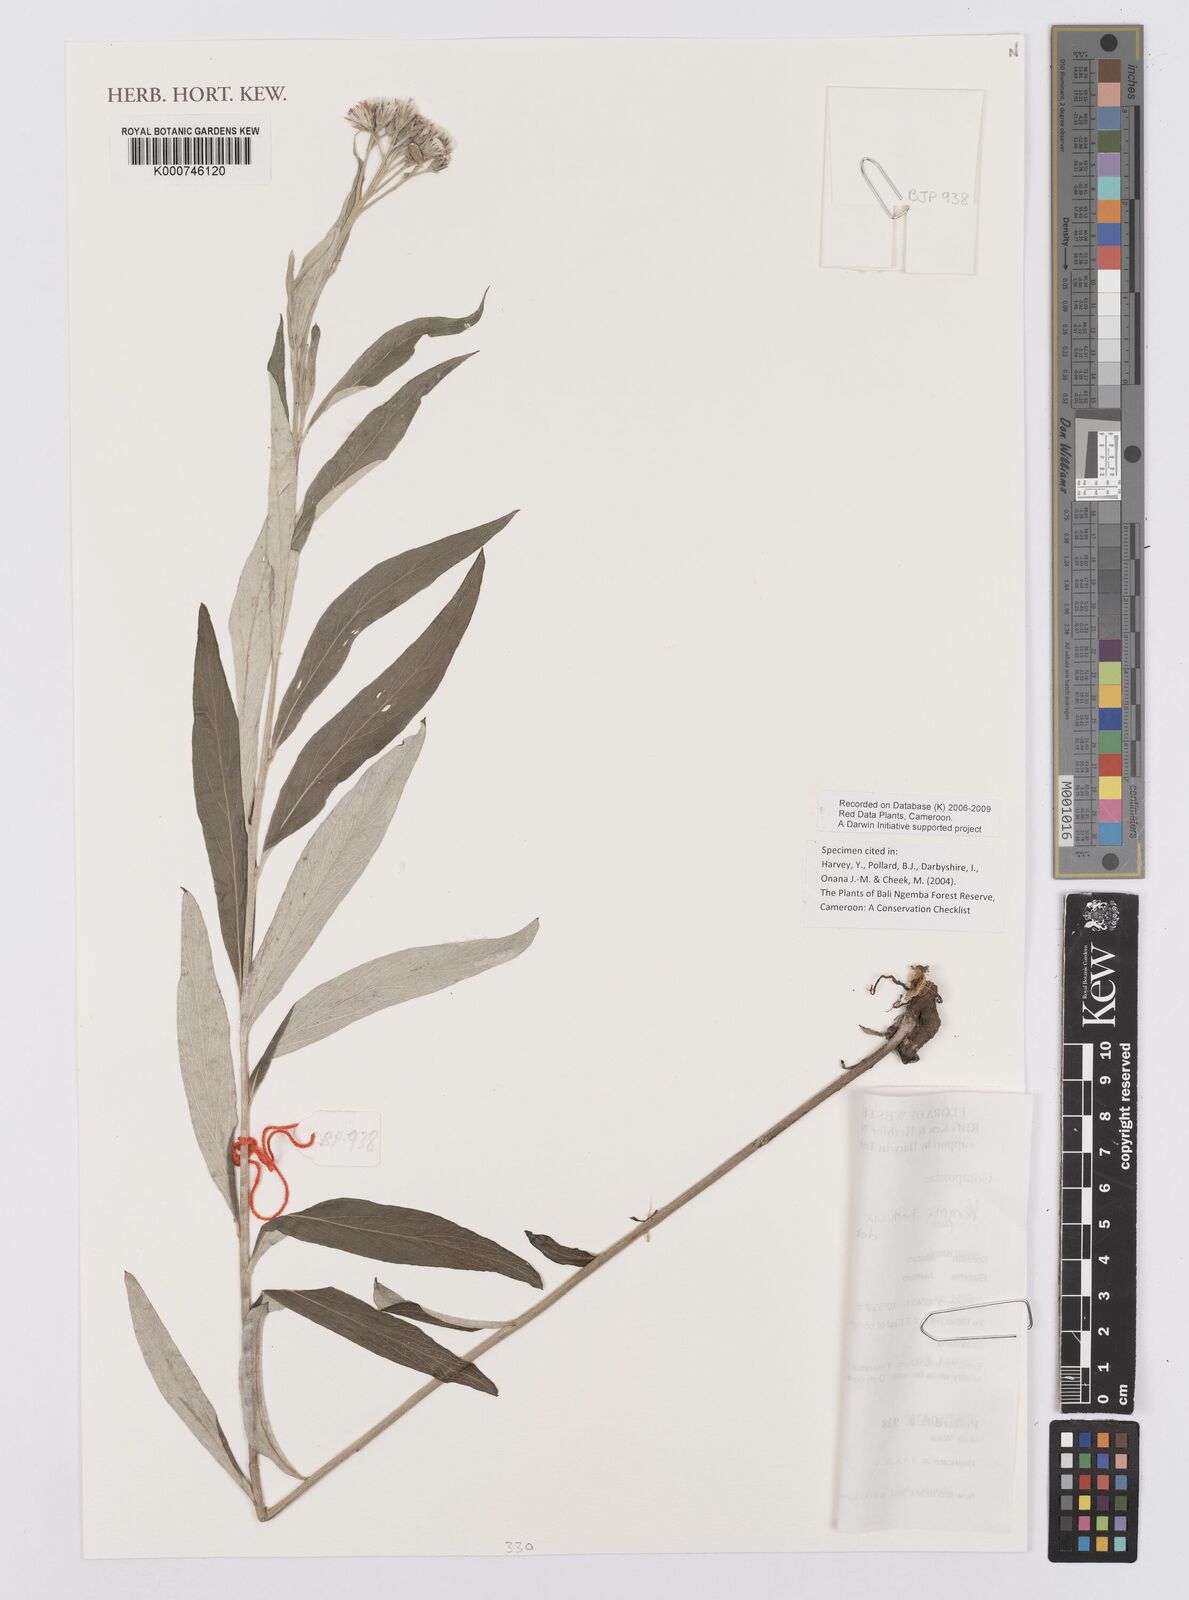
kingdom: Plantae
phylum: Tracheophyta
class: Magnoliopsida
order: Asterales
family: Asteraceae
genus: Hilliardiella
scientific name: Hilliardiella smithiana
